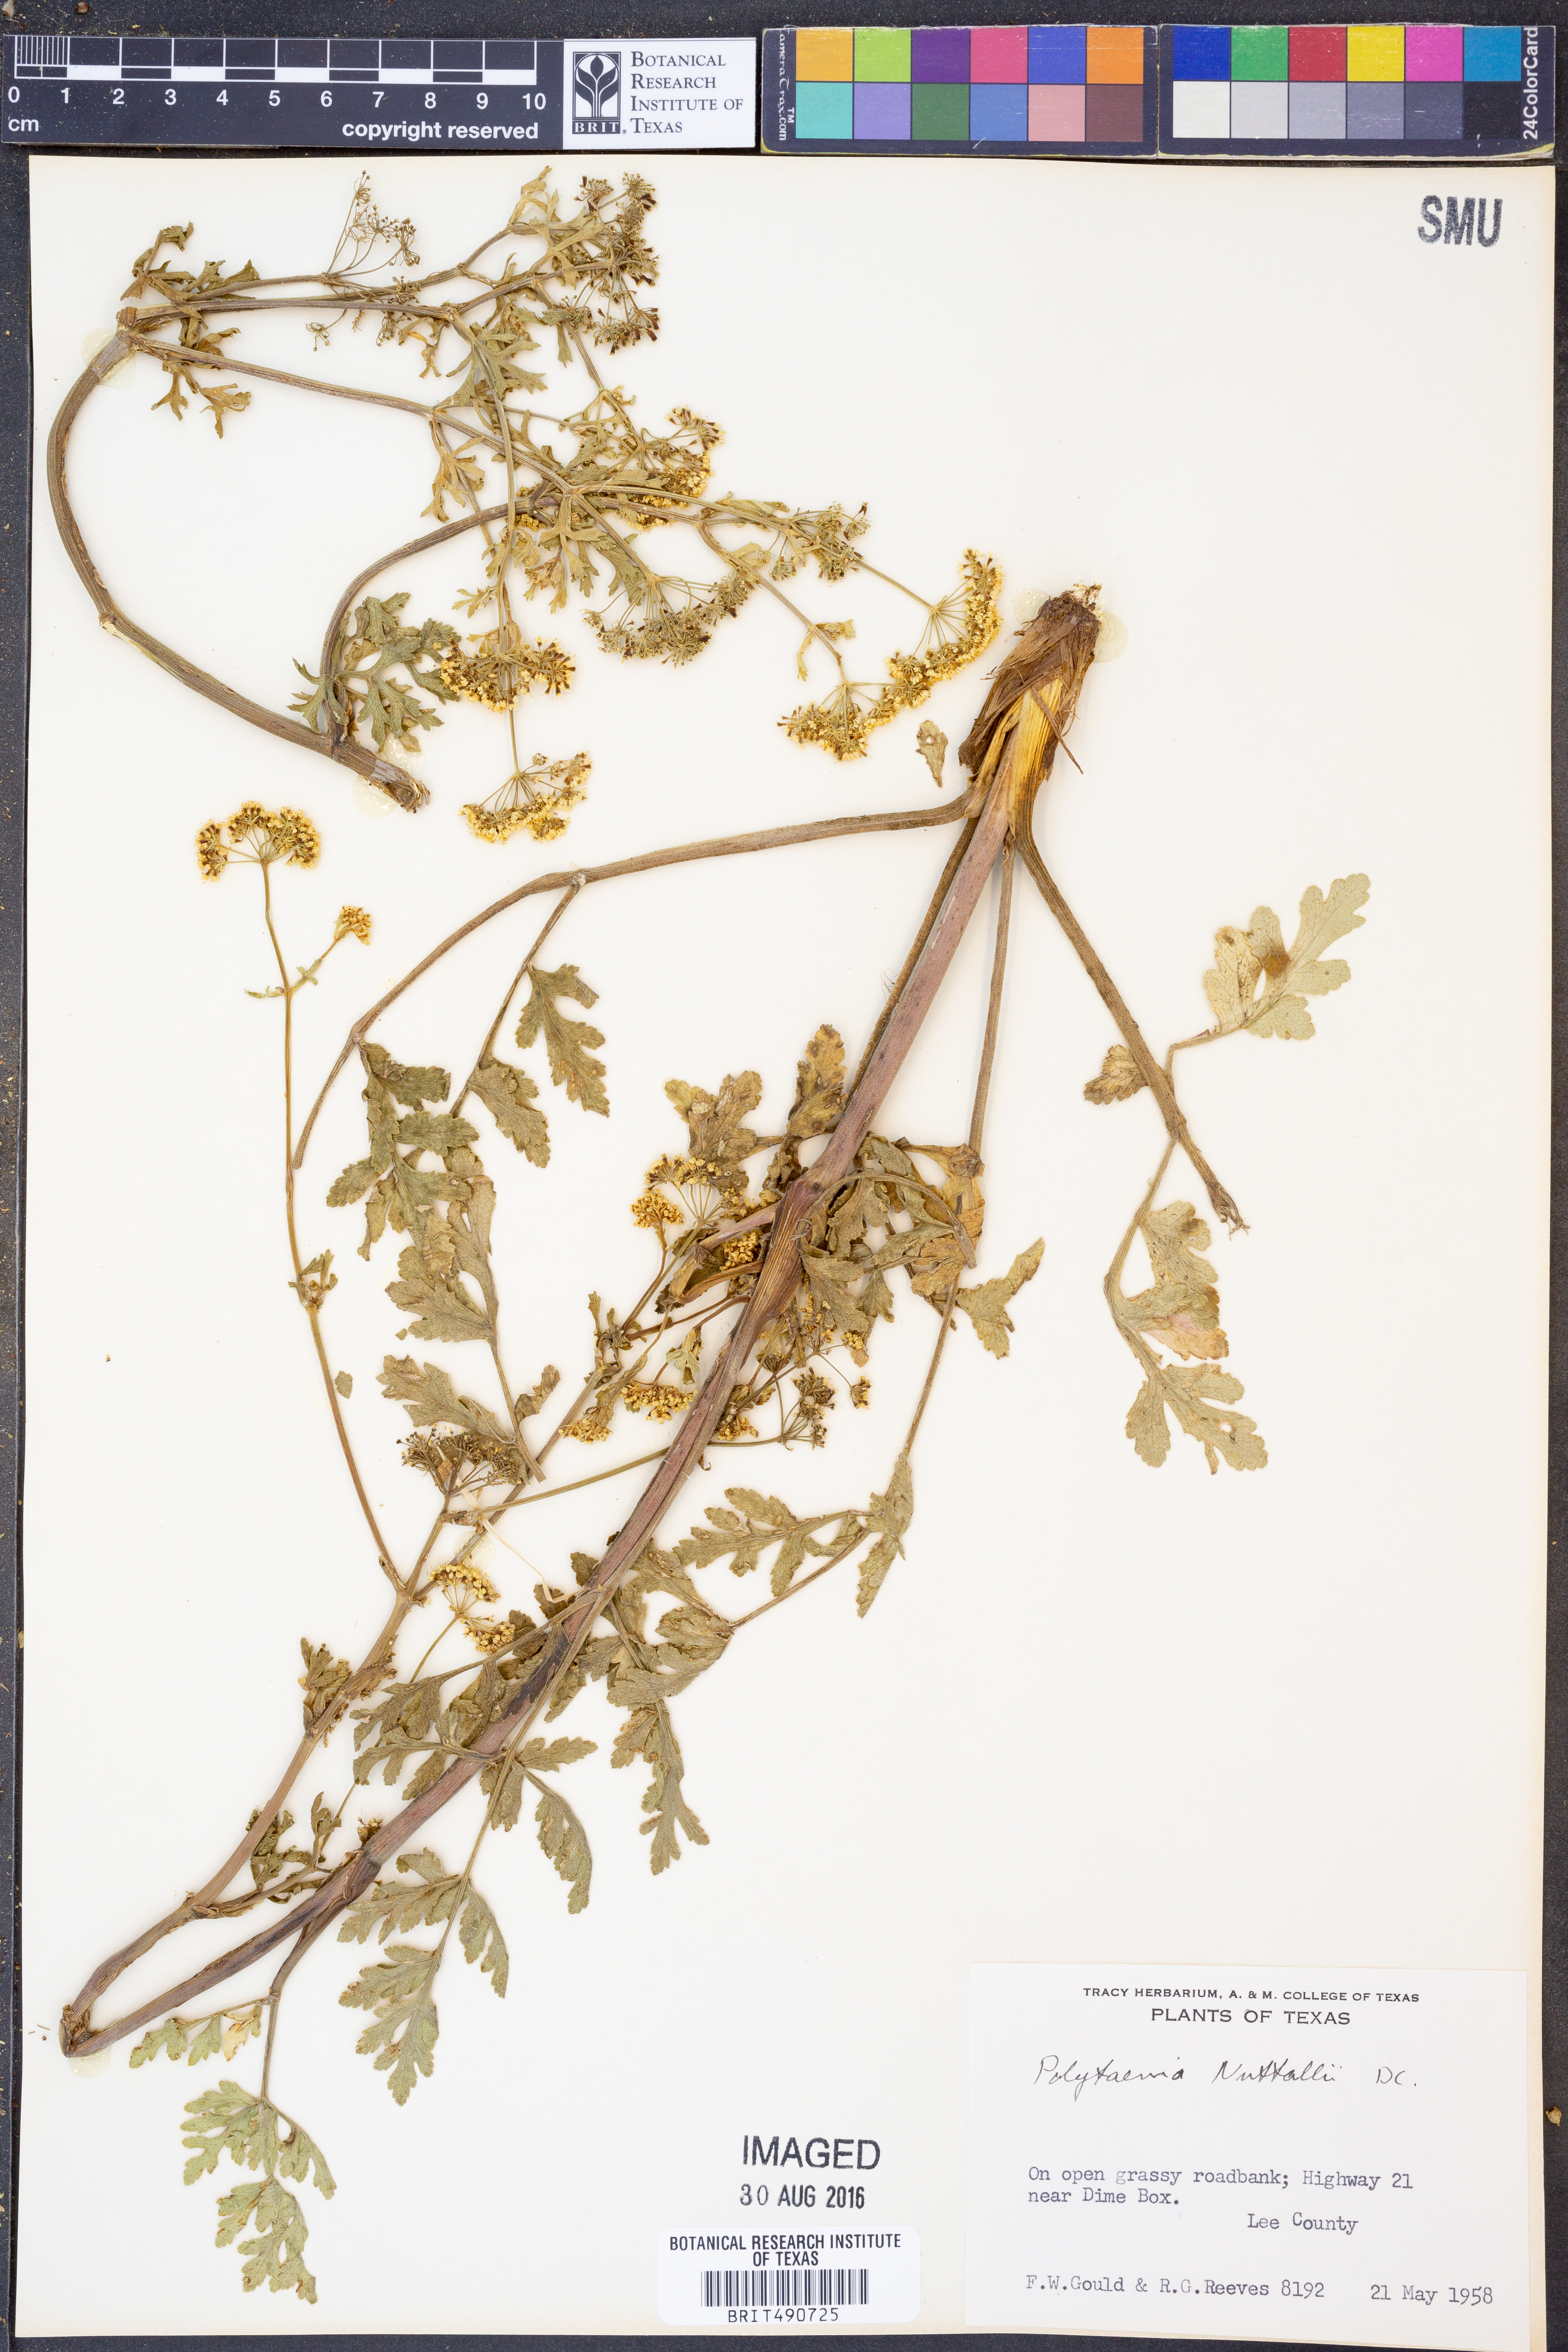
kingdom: Plantae
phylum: Tracheophyta
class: Magnoliopsida
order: Apiales
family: Apiaceae
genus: Polytaenia
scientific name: Polytaenia nuttallii
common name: Prairie-parsley
